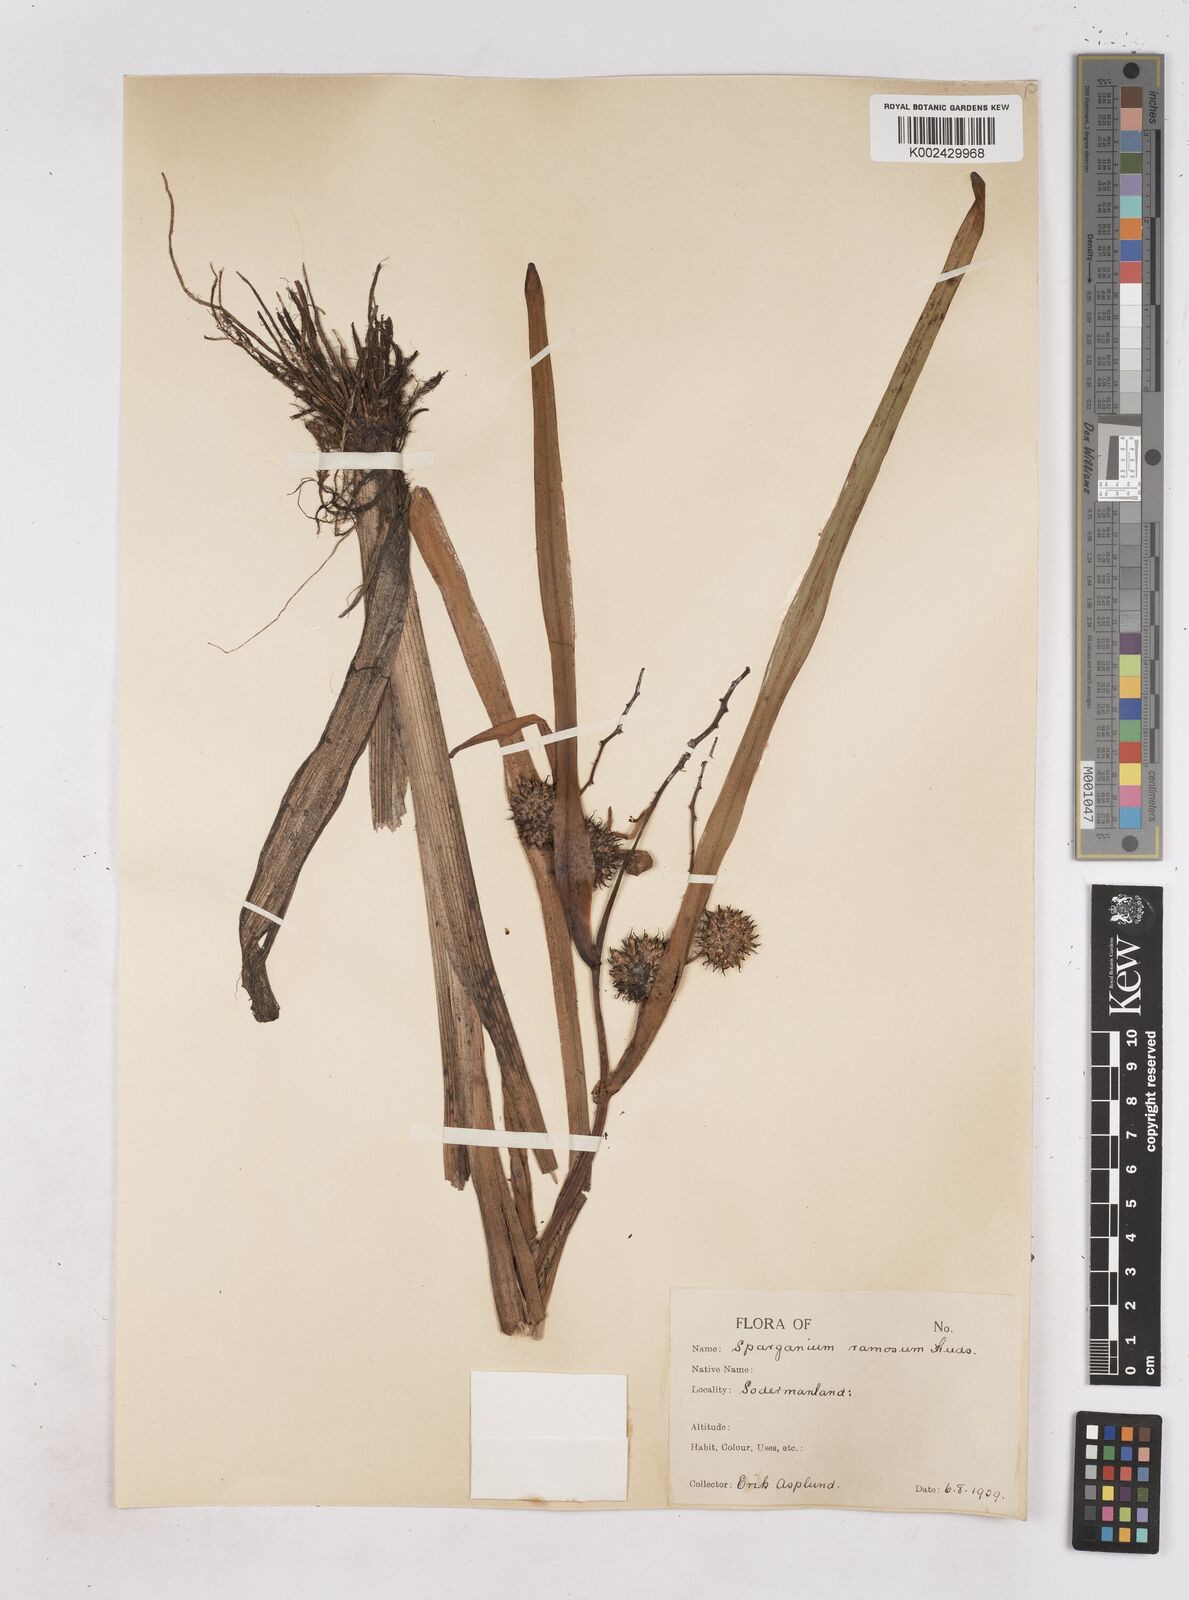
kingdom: Plantae
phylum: Tracheophyta
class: Liliopsida
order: Poales
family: Typhaceae
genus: Sparganium
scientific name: Sparganium erectum
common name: Branched bur-reed
